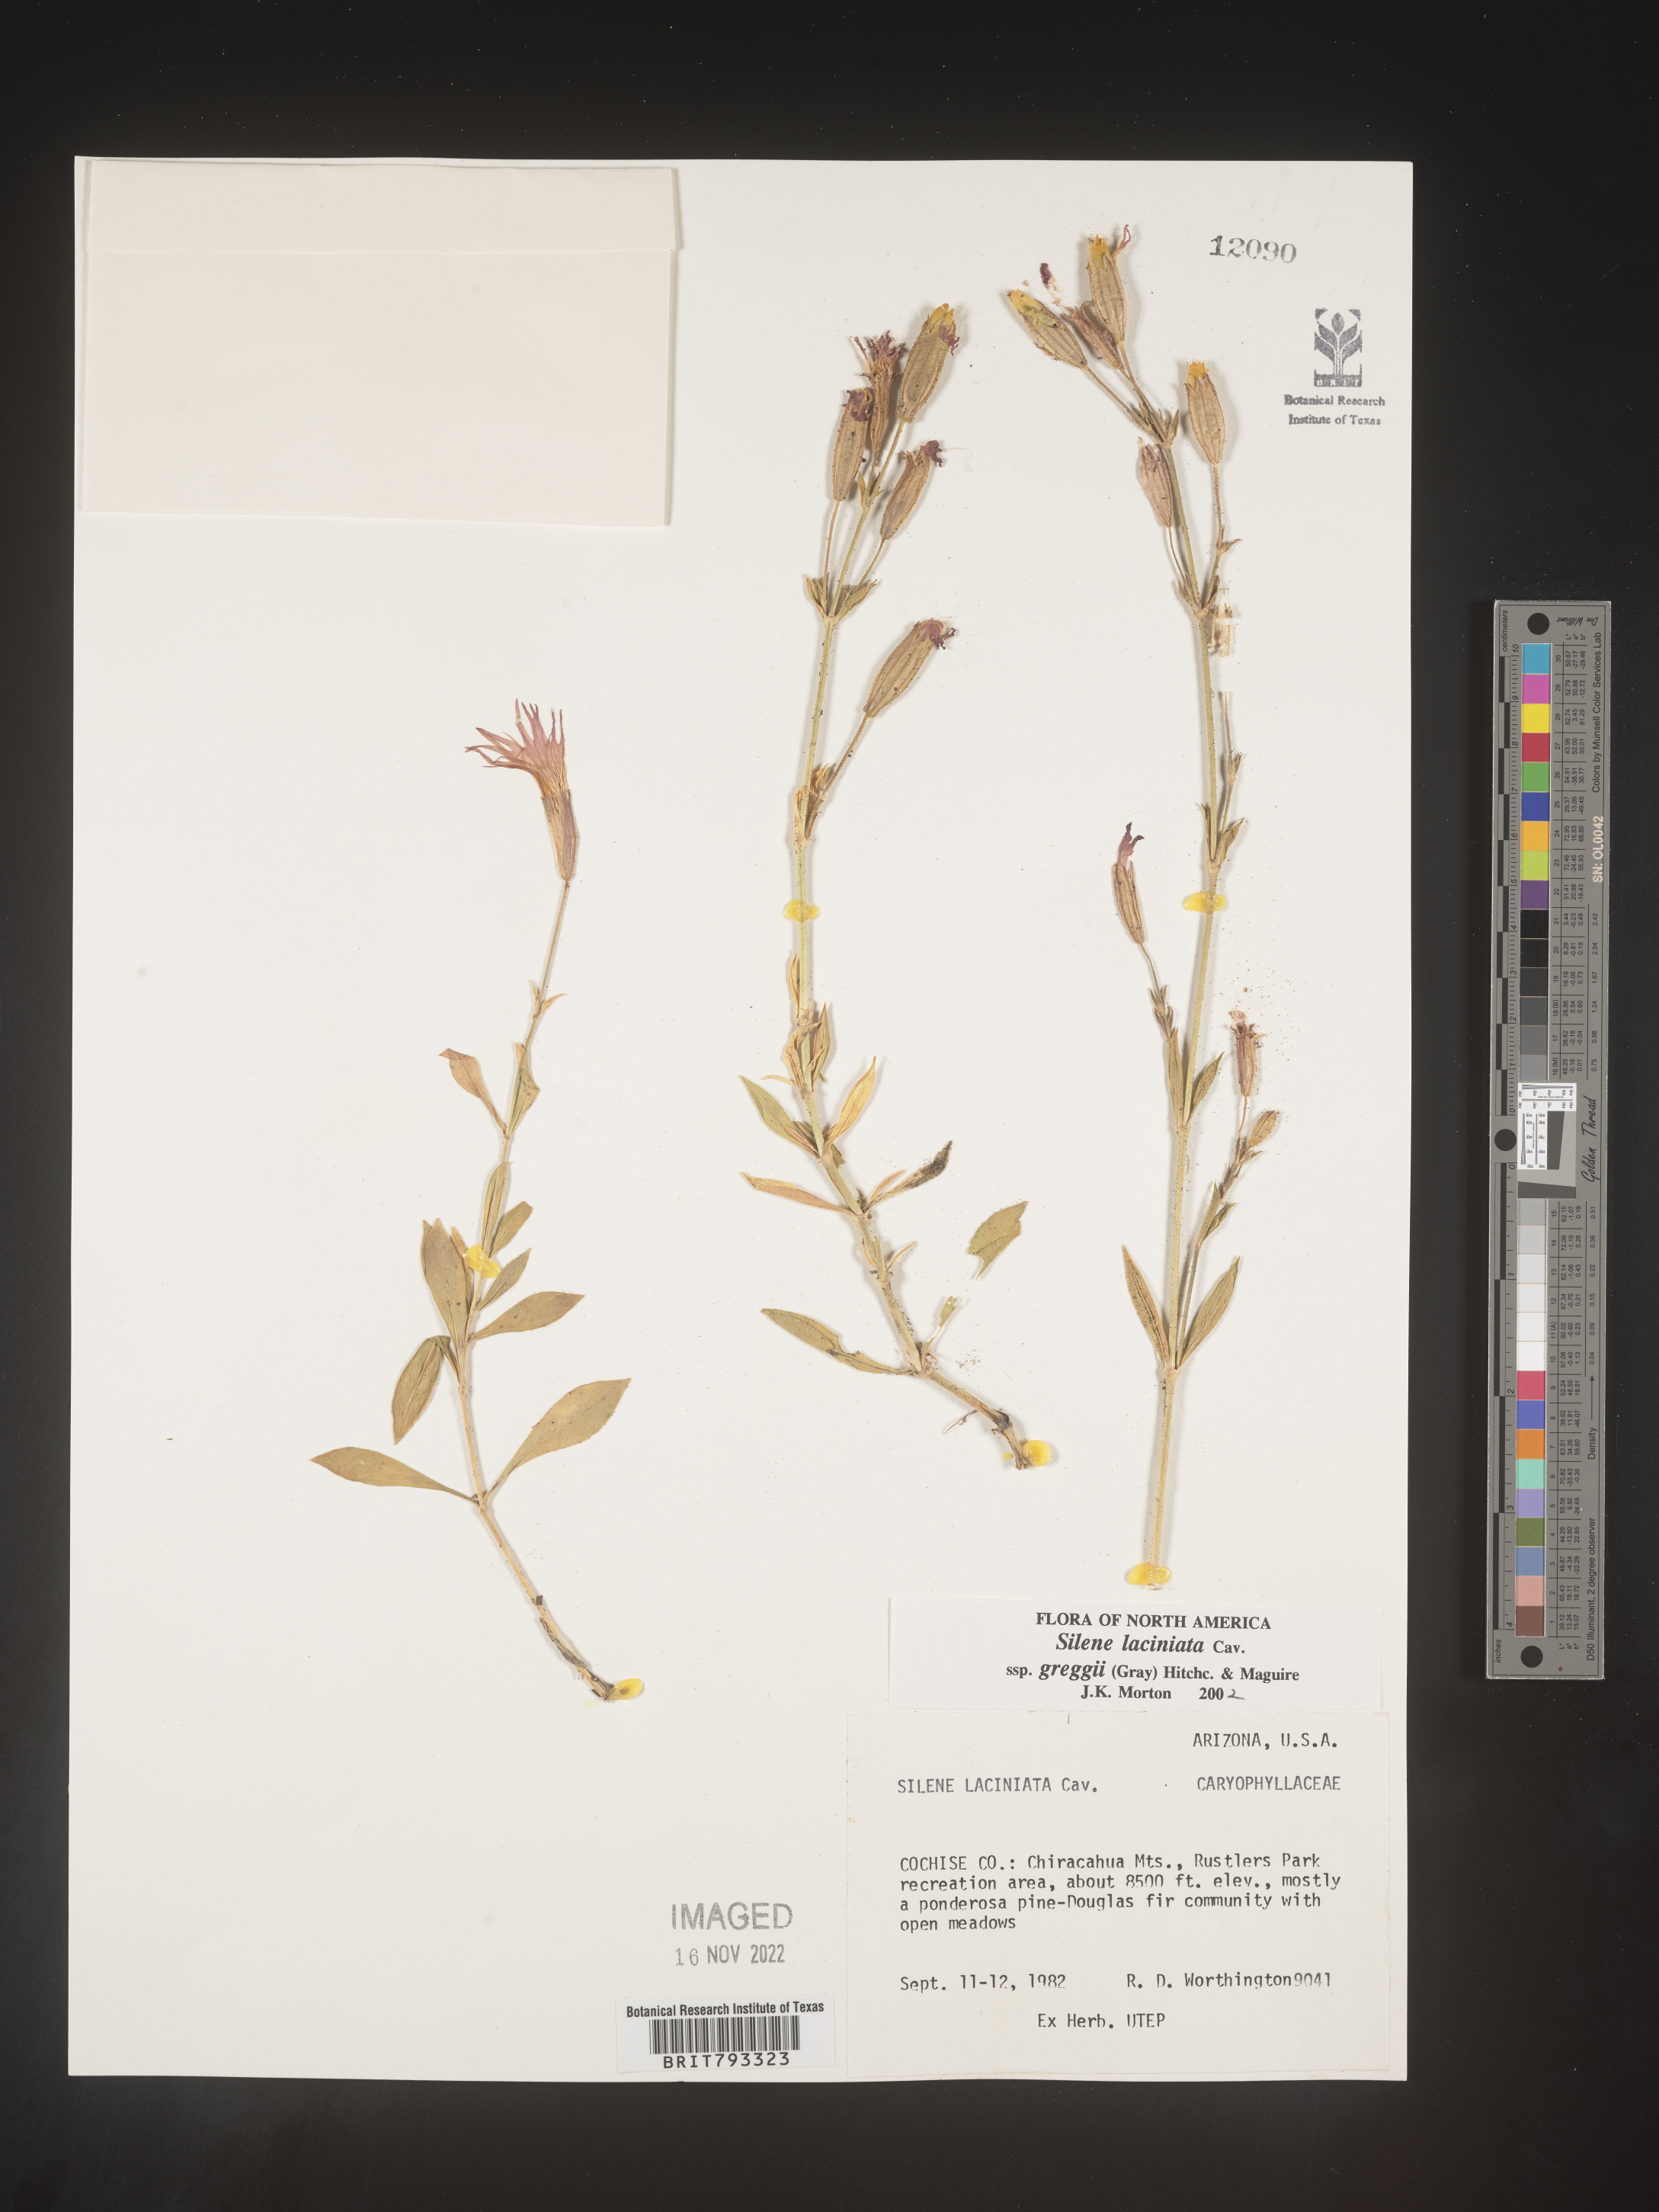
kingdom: Plantae
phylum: Tracheophyta
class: Magnoliopsida
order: Caryophyllales
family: Caryophyllaceae
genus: Silene
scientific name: Silene laciniata
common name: Indian-pink
